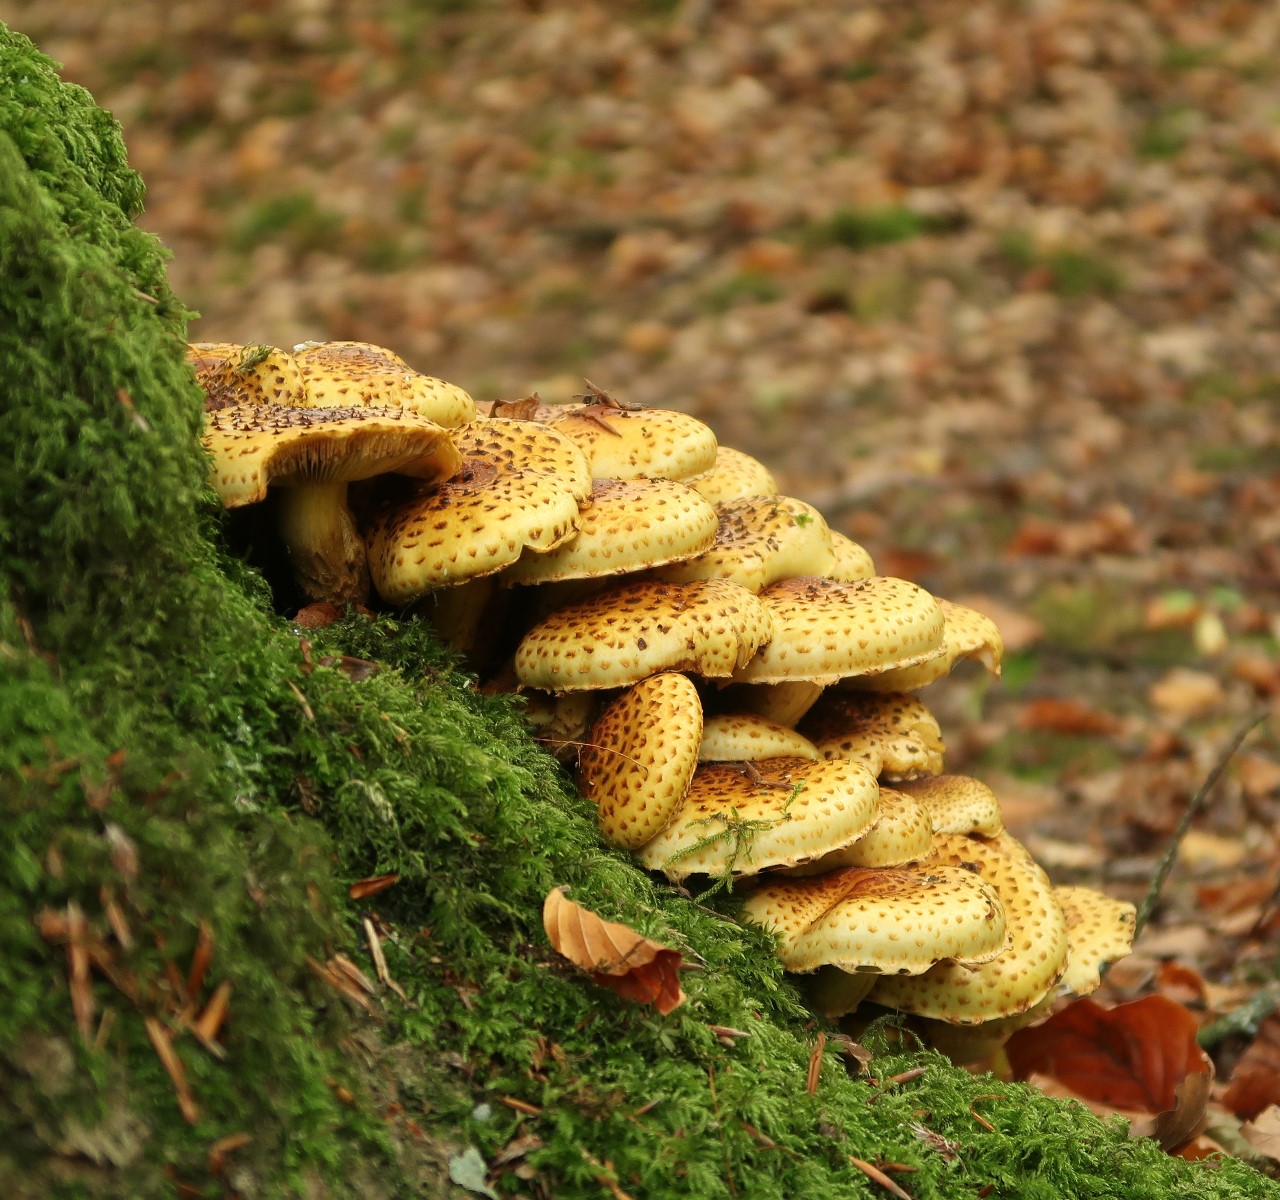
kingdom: Fungi
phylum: Basidiomycota
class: Agaricomycetes
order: Agaricales
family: Strophariaceae
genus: Pholiota
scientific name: Pholiota jahnii
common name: slimet skælhat
